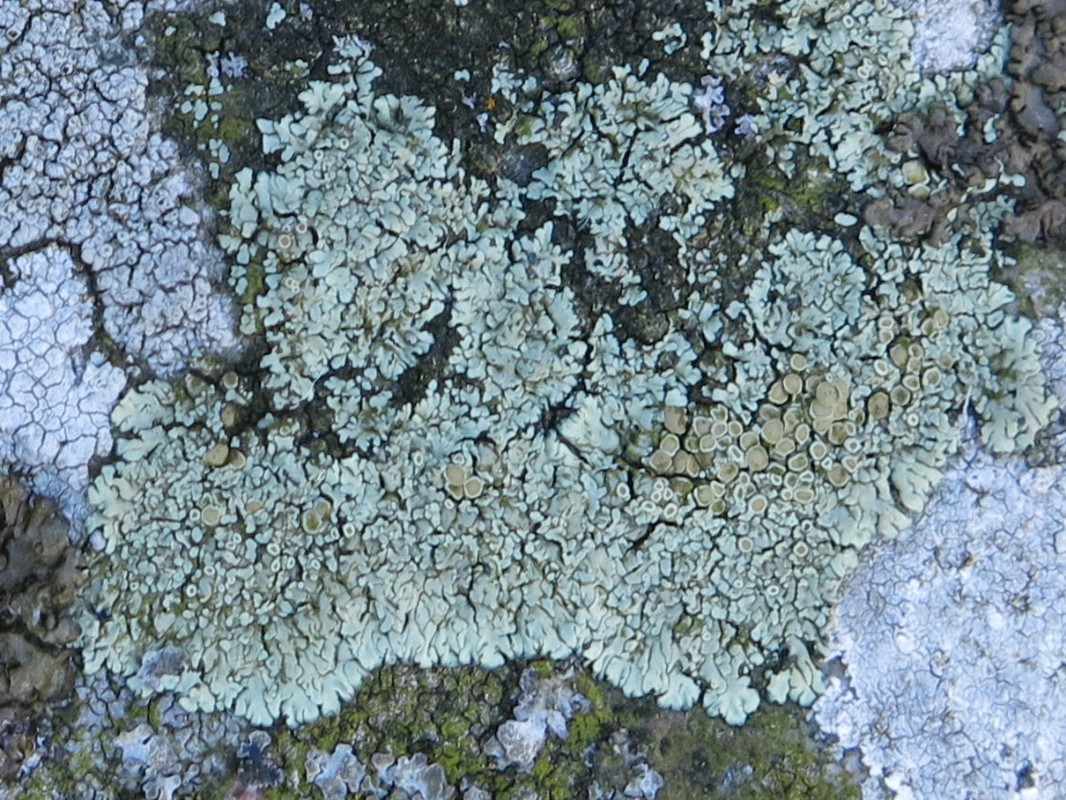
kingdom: Fungi
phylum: Ascomycota
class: Lecanoromycetes
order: Lecanorales
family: Lecanoraceae
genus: Protoparmeliopsis
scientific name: Protoparmeliopsis muralis
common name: randfliget kantskivelav
